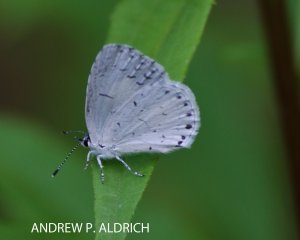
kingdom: Animalia
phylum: Arthropoda
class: Insecta
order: Lepidoptera
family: Lycaenidae
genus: Cyaniris
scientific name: Cyaniris neglecta
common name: Summer Azure
